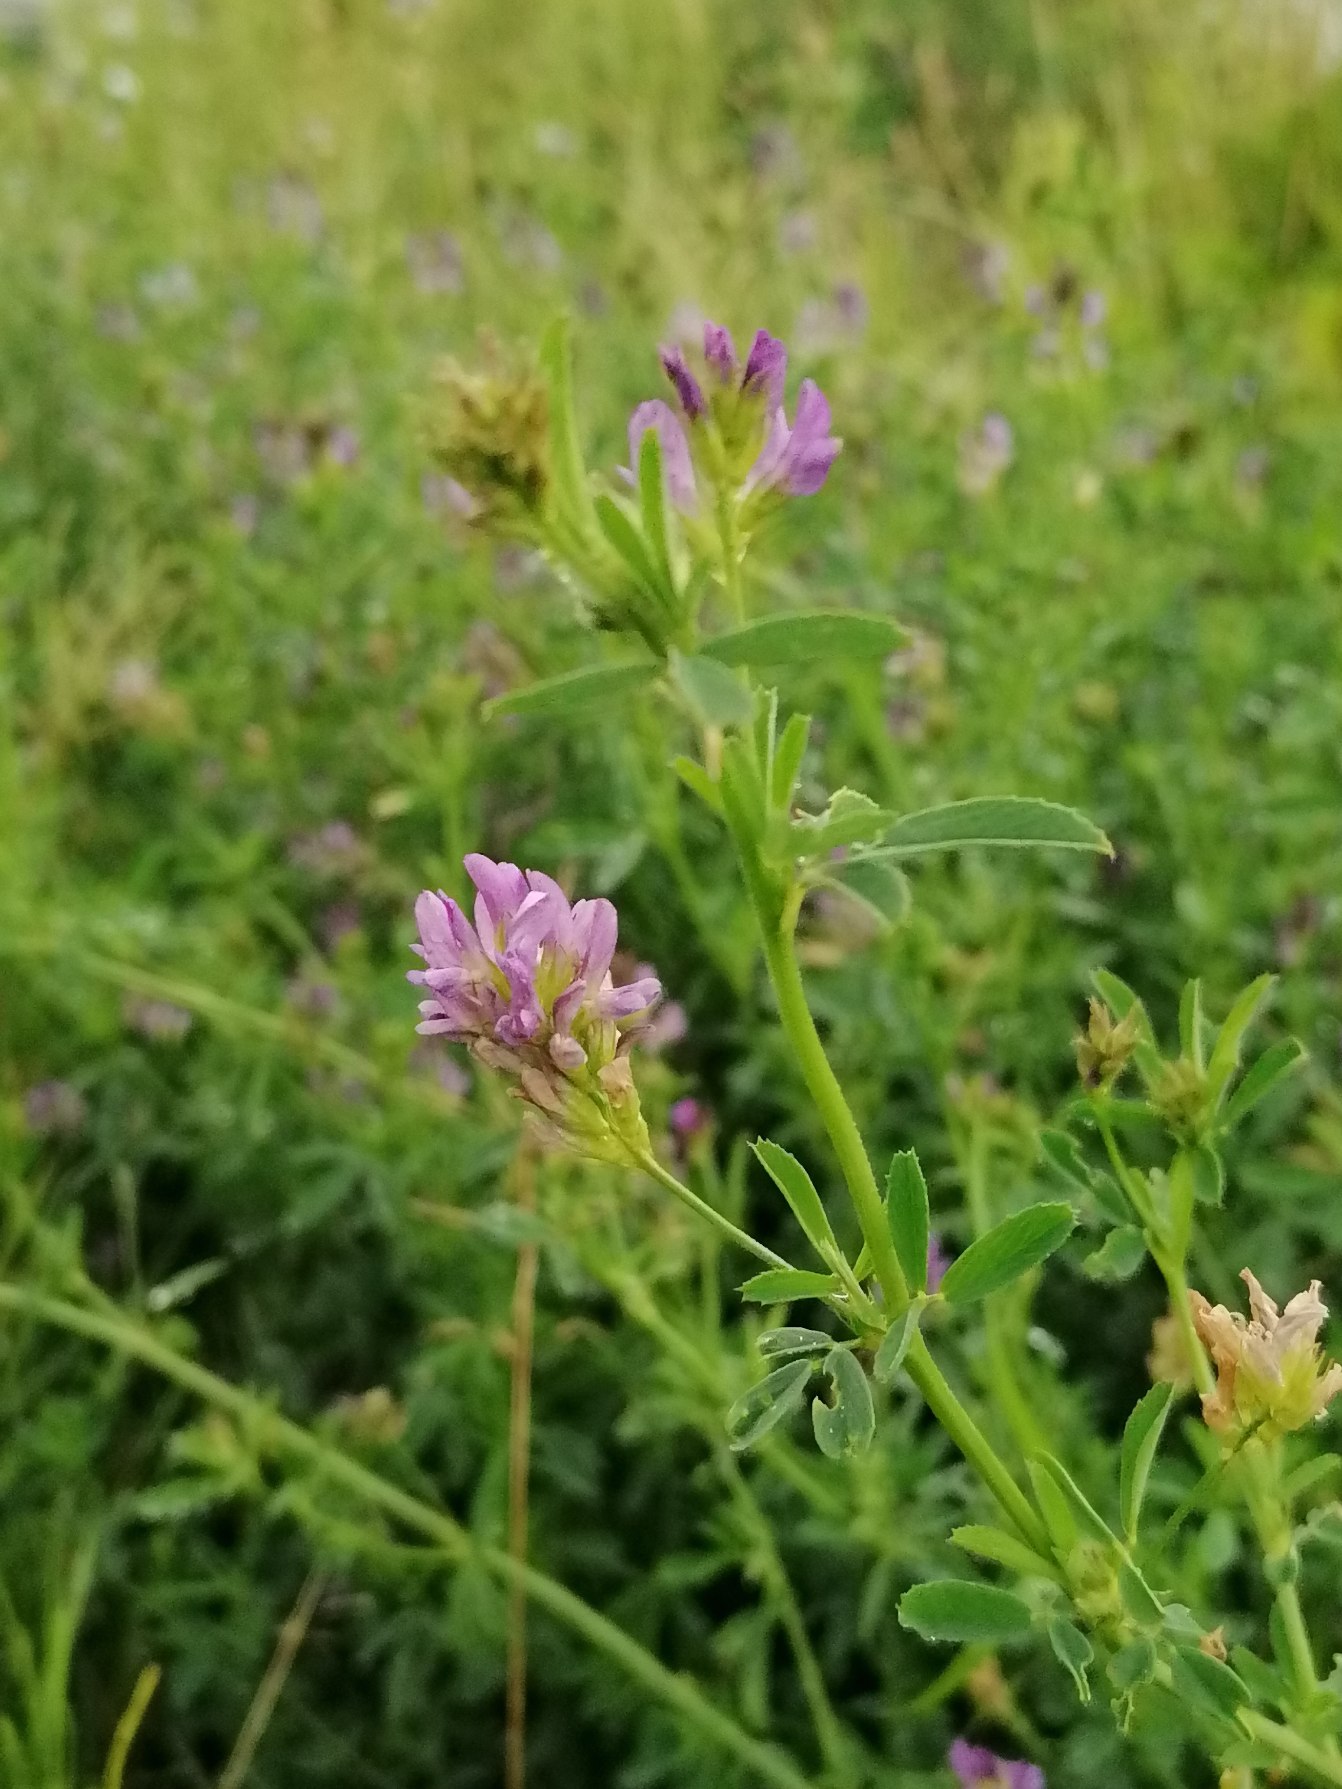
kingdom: Plantae
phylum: Tracheophyta
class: Magnoliopsida
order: Fabales
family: Fabaceae
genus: Medicago
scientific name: Medicago sativa
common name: Lucerne
